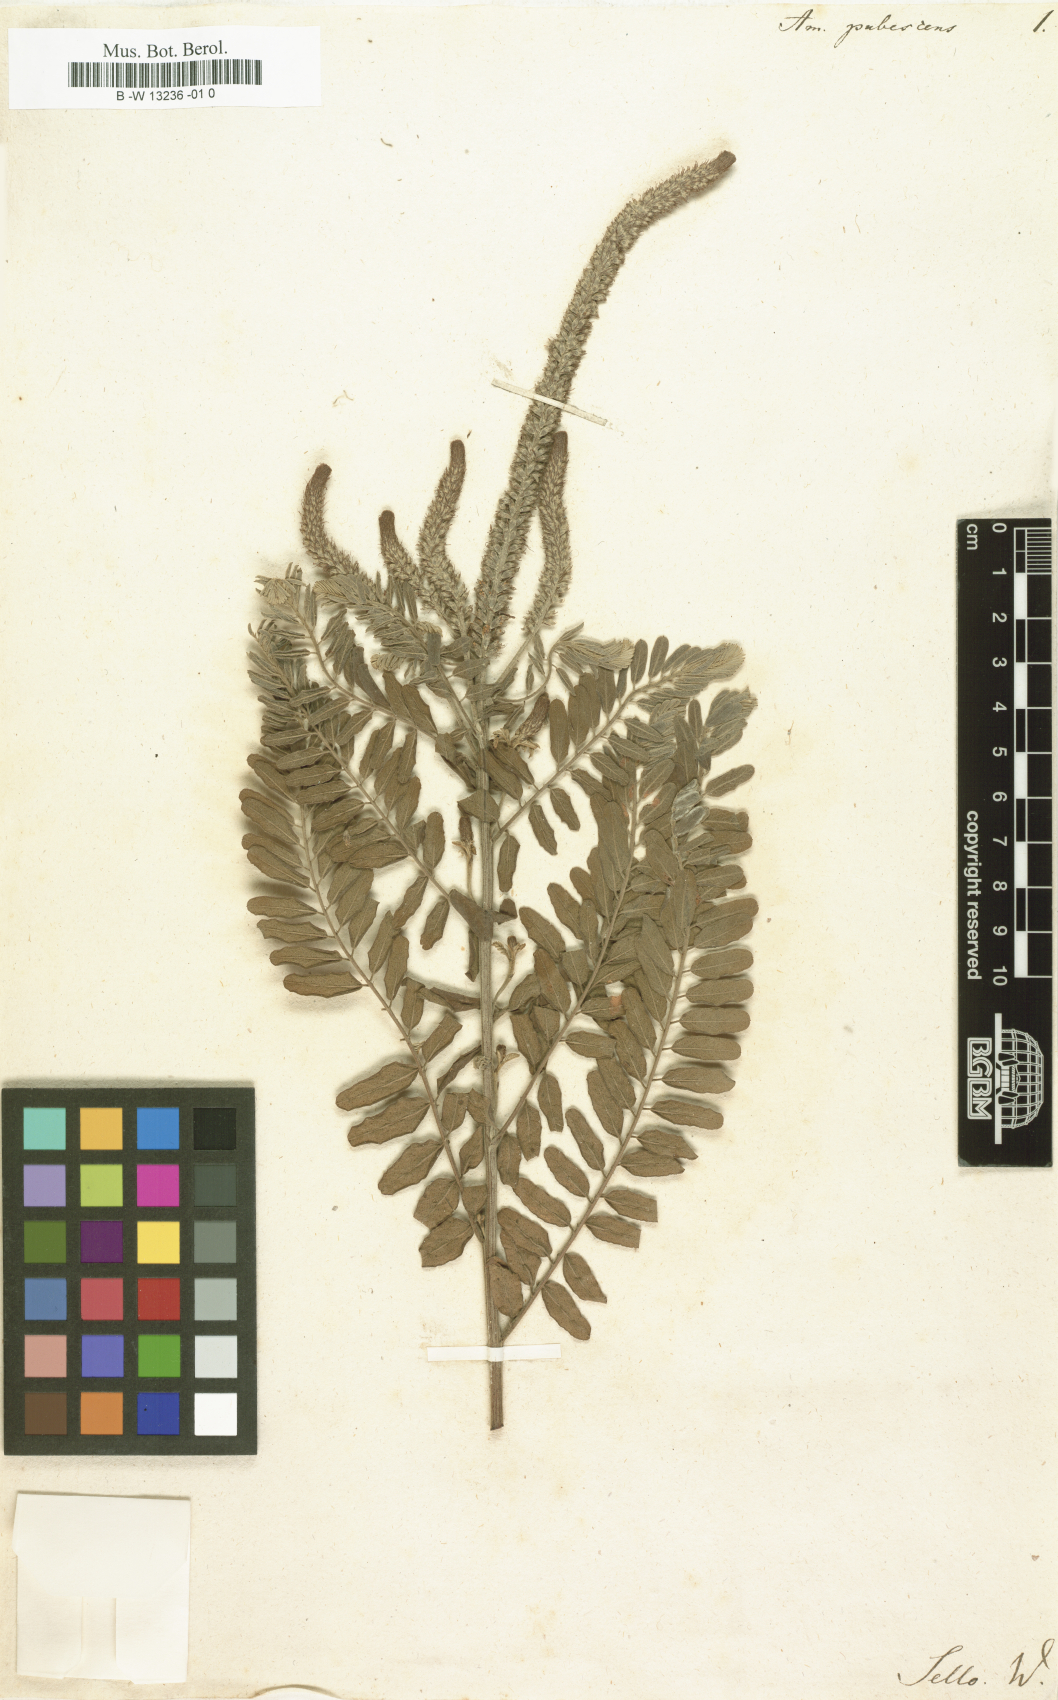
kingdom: Plantae
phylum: Tracheophyta
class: Magnoliopsida
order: Fabales
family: Fabaceae
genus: Amorpha
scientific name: Amorpha
